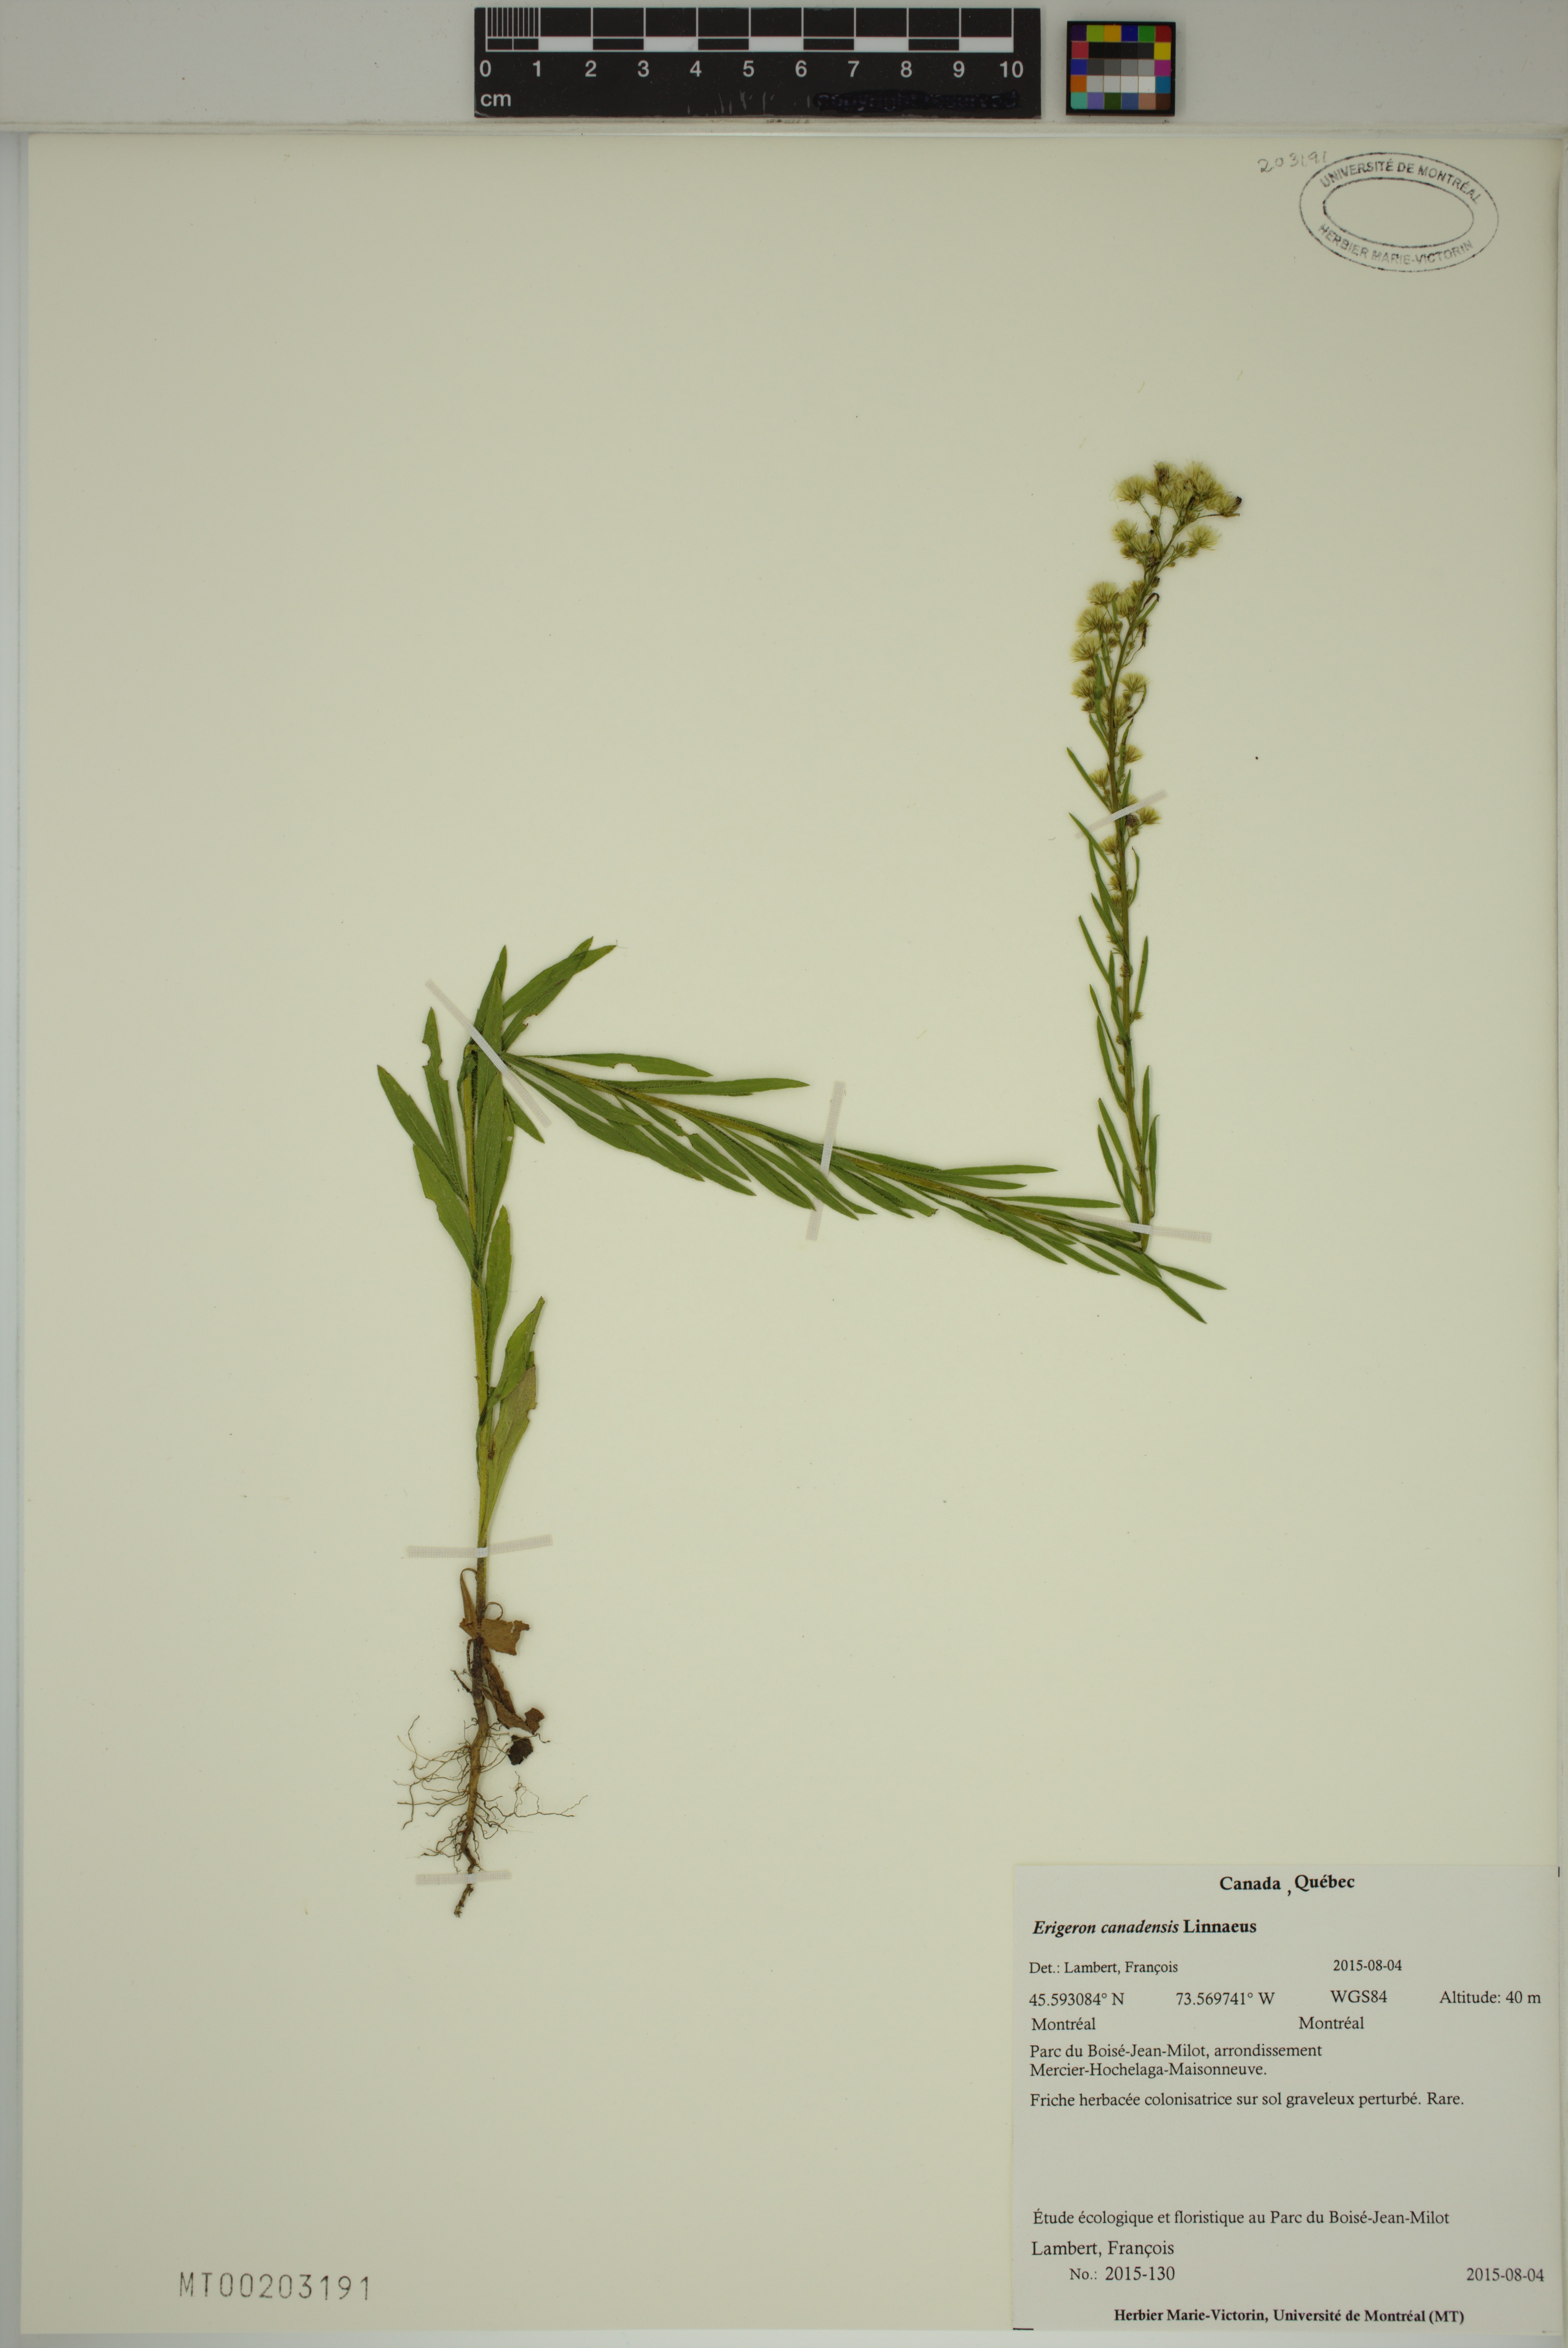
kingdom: Plantae
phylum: Tracheophyta
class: Magnoliopsida
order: Asterales
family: Asteraceae
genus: Erigeron
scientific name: Erigeron canadensis
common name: Canadian fleabane
